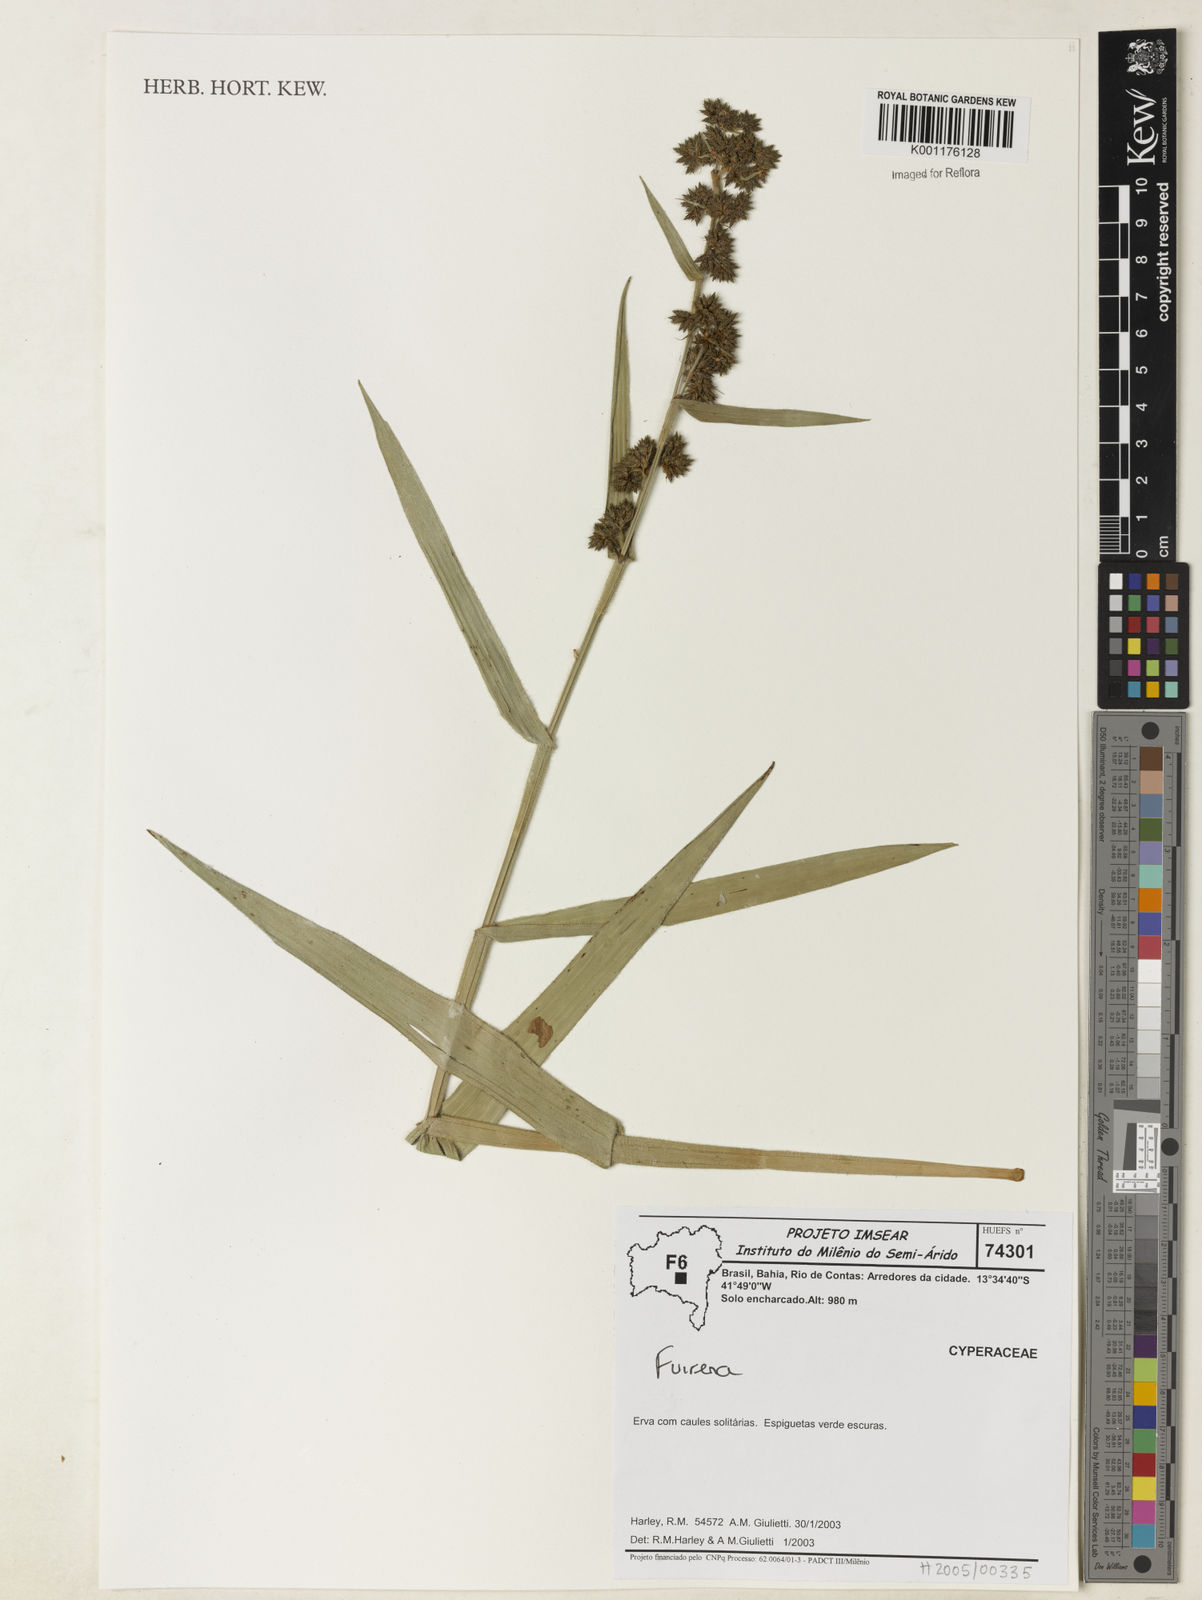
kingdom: Plantae
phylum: Tracheophyta
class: Liliopsida
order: Poales
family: Cyperaceae
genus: Fuirena
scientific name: Fuirena
